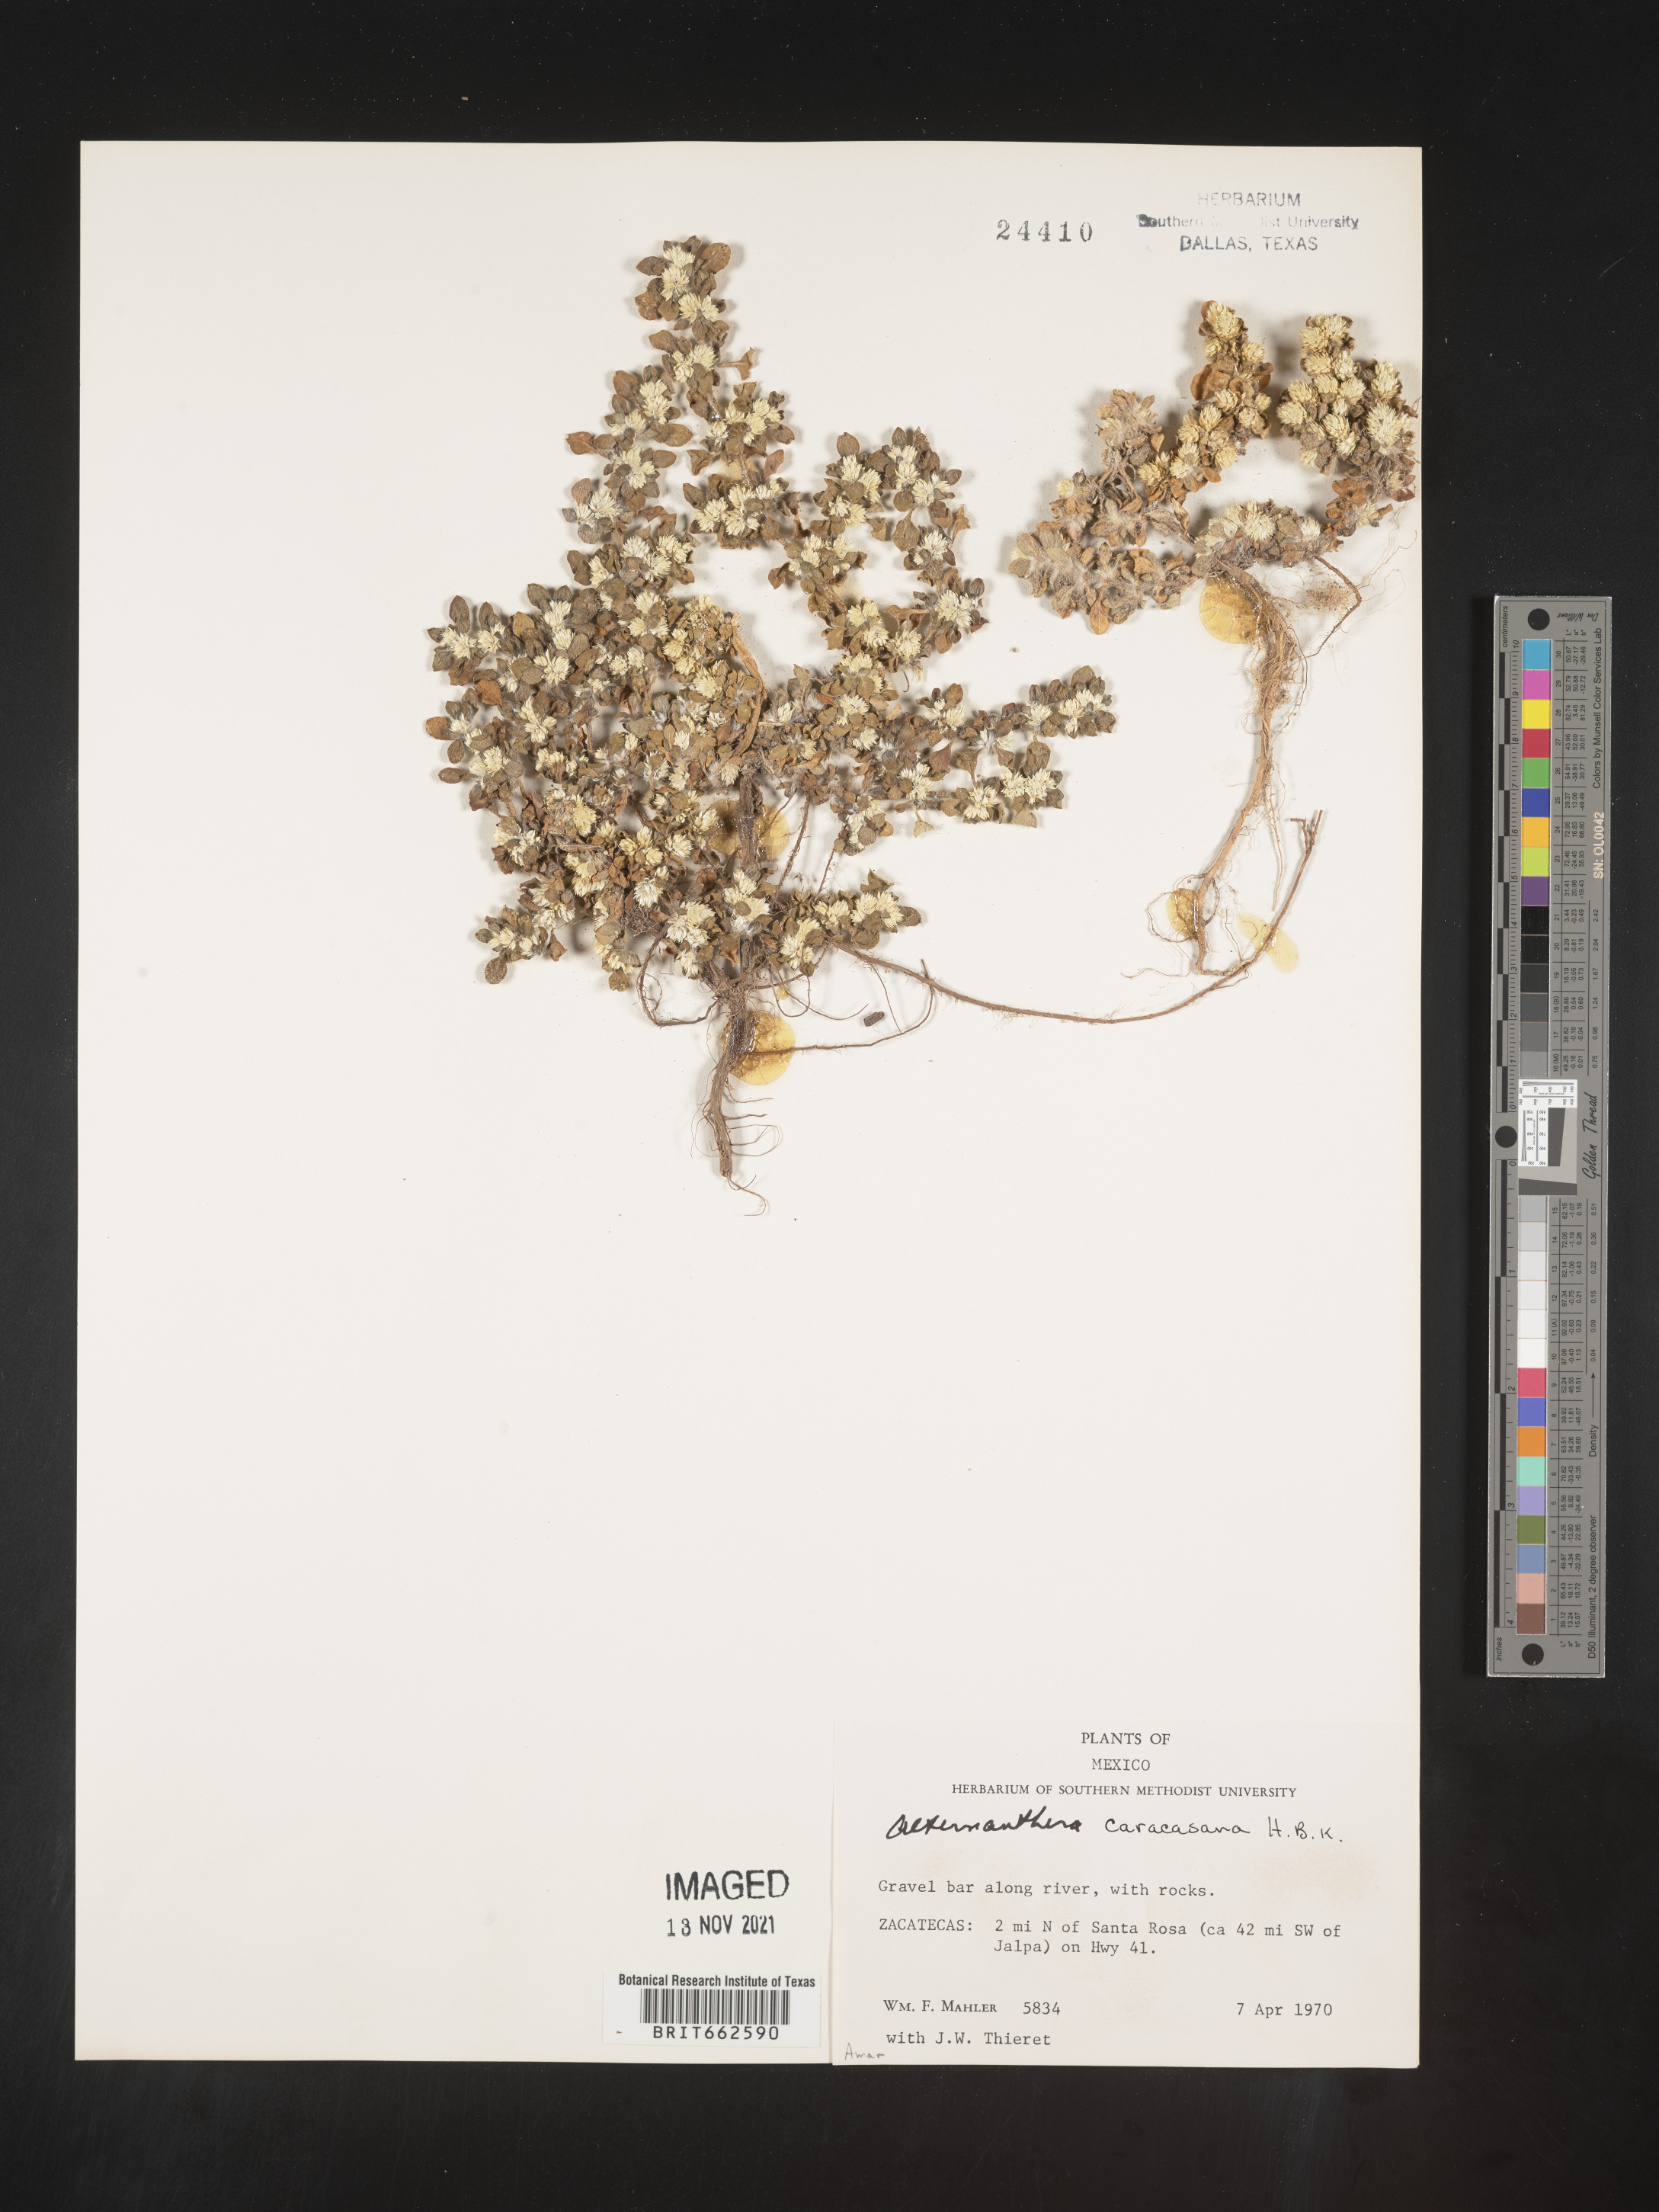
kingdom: Plantae
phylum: Tracheophyta
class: Magnoliopsida
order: Caryophyllales
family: Amaranthaceae
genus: Alternanthera
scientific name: Alternanthera
